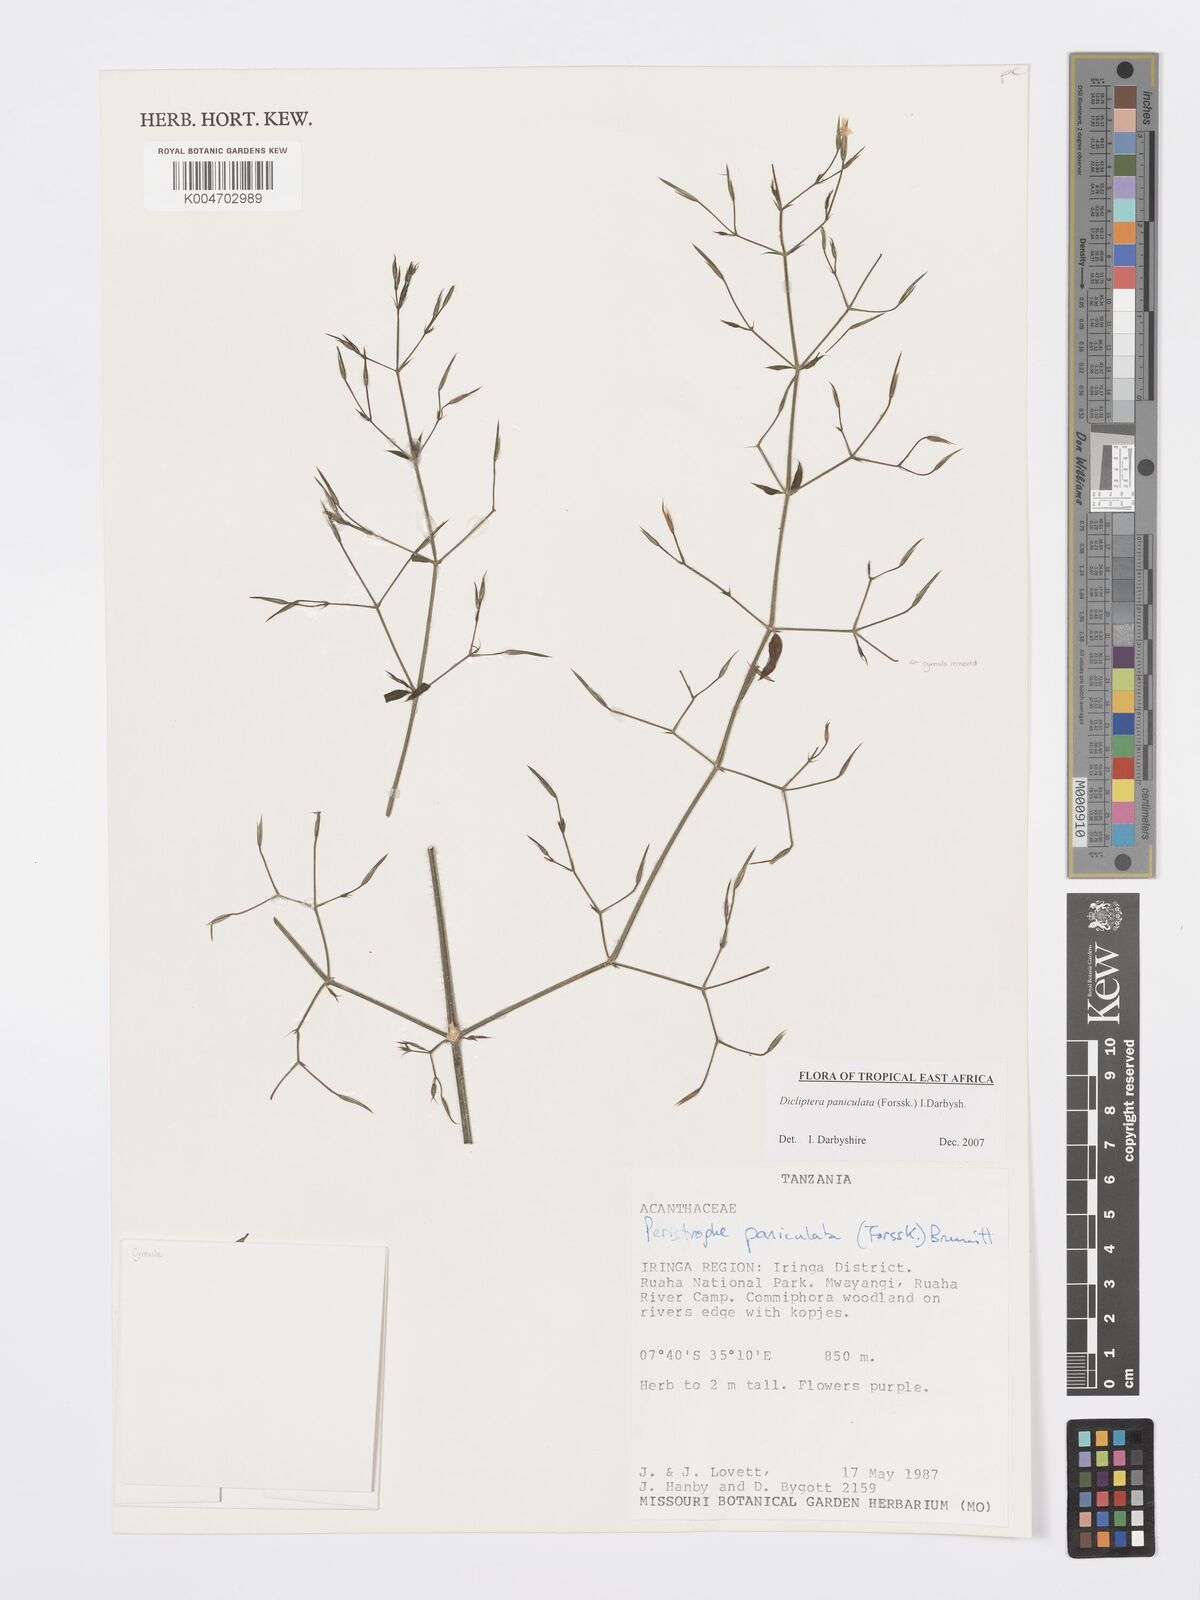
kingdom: Plantae
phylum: Tracheophyta
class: Magnoliopsida
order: Lamiales
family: Acanthaceae
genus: Dicliptera
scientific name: Dicliptera paniculata
